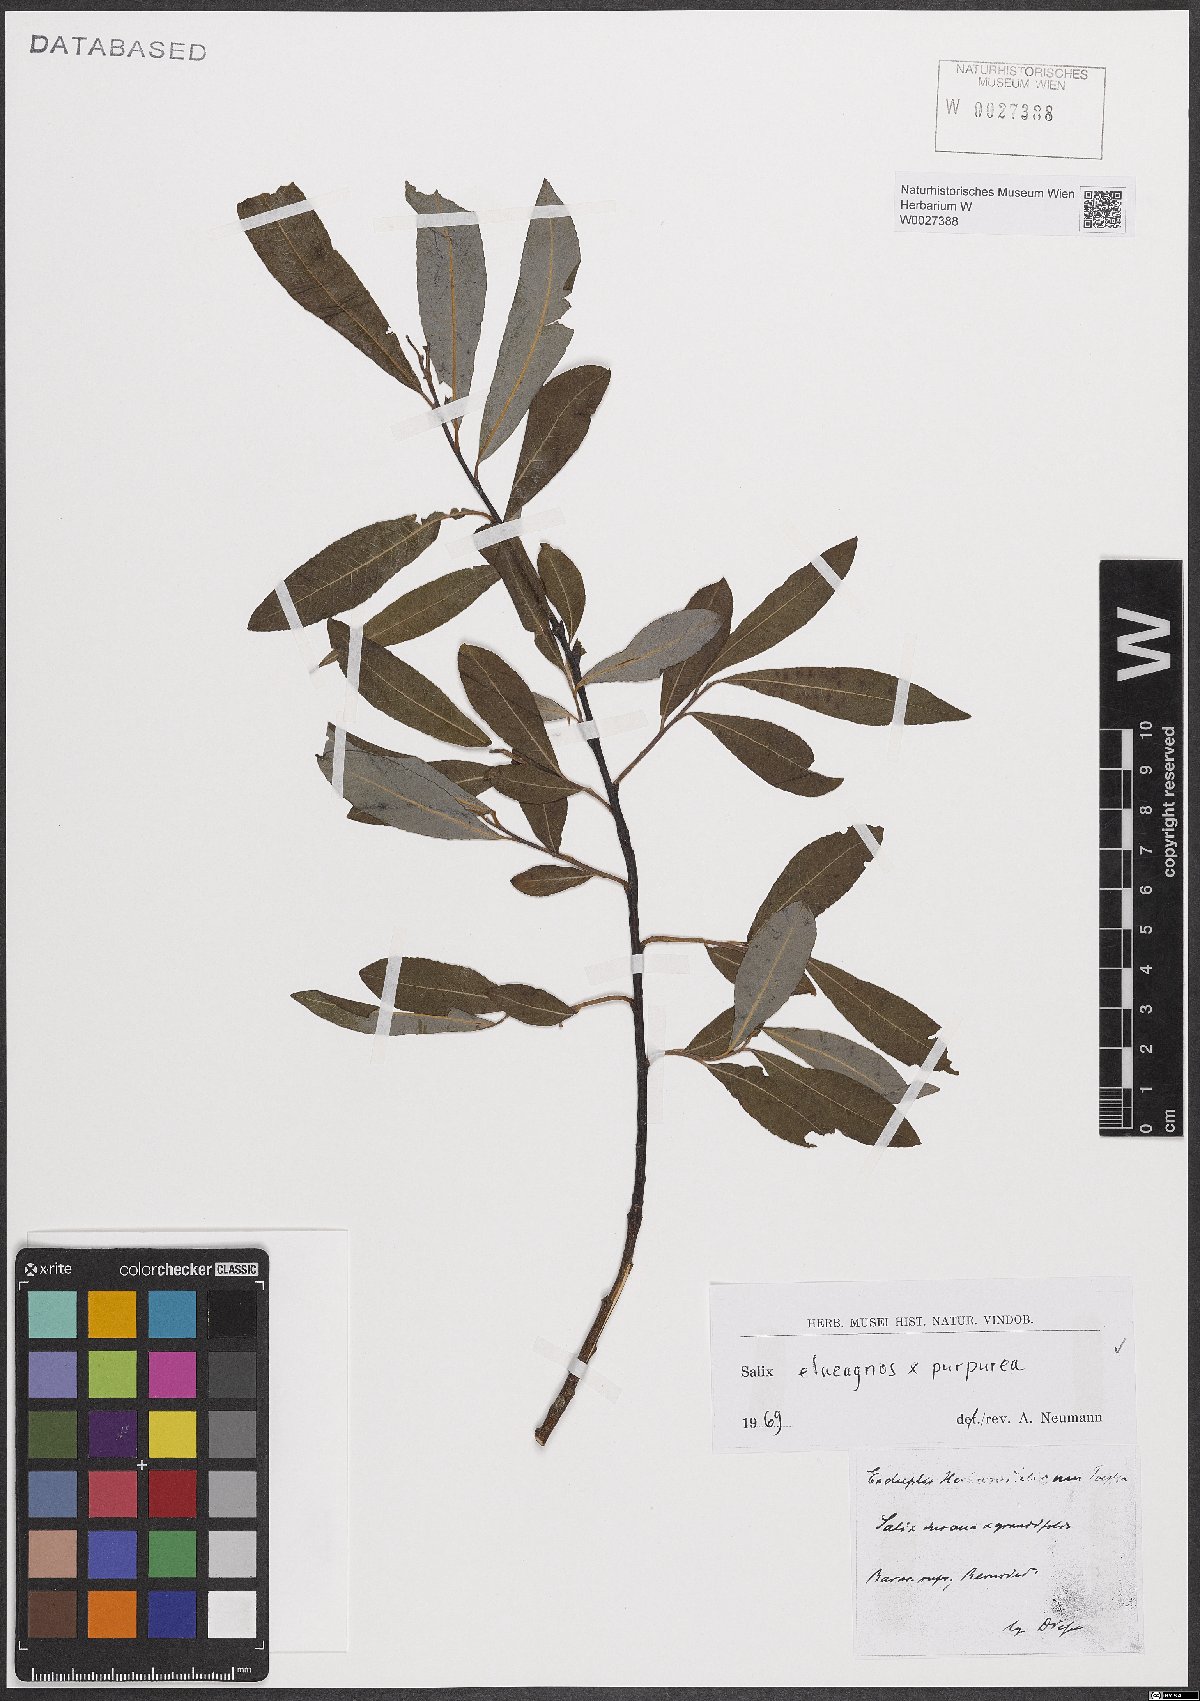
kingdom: Plantae
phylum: Tracheophyta
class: Magnoliopsida
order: Malpighiales
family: Salicaceae
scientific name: Salicaceae
